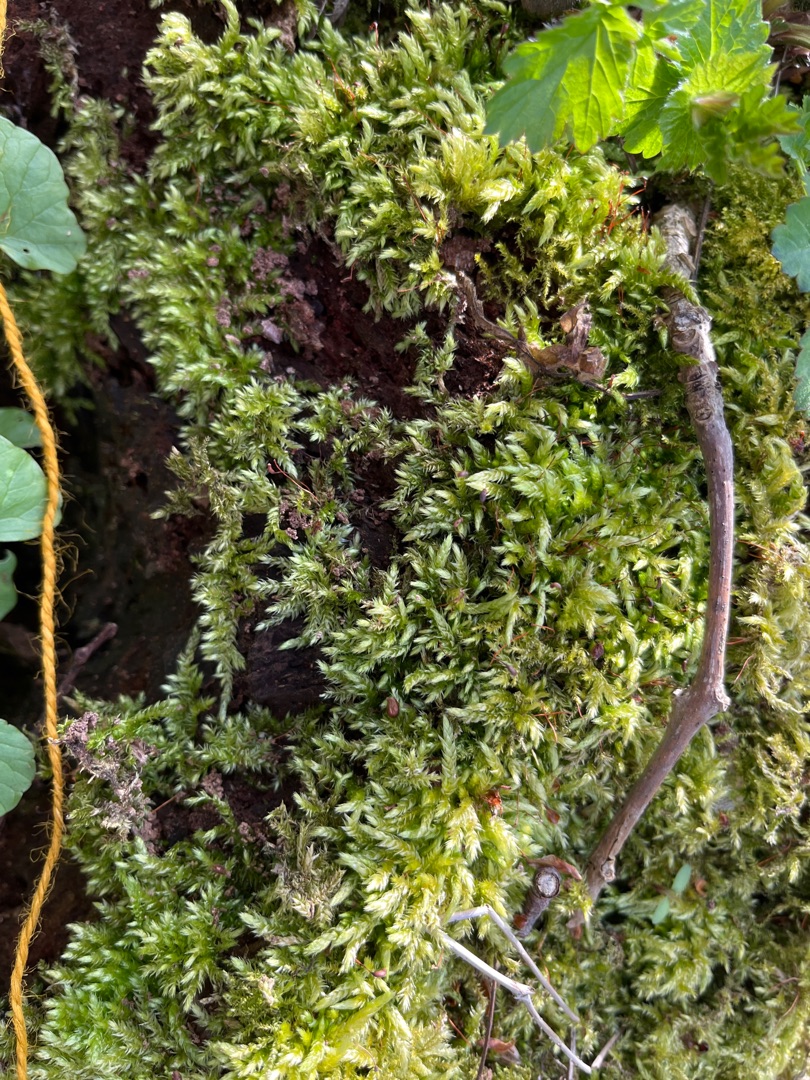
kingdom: Plantae
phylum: Bryophyta
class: Bryopsida
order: Hypnales
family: Brachytheciaceae
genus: Brachythecium
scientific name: Brachythecium rutabulum
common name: Almindelig kortkapsel
